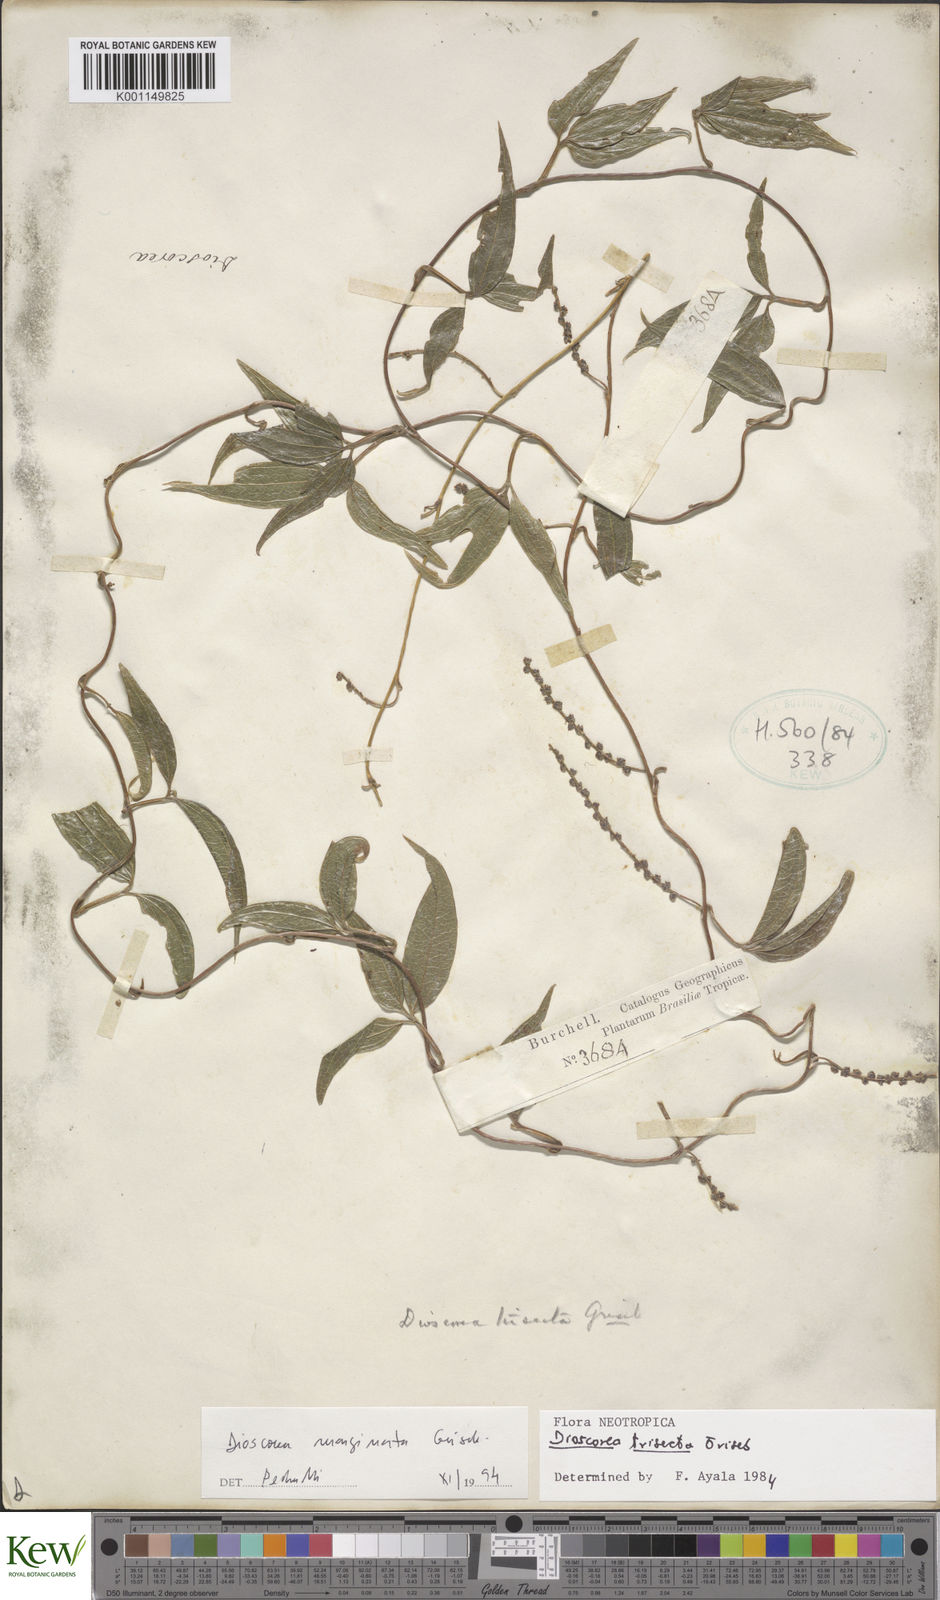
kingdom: Plantae
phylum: Tracheophyta
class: Liliopsida
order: Dioscoreales
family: Dioscoreaceae
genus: Dioscorea
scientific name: Dioscorea trisecta
